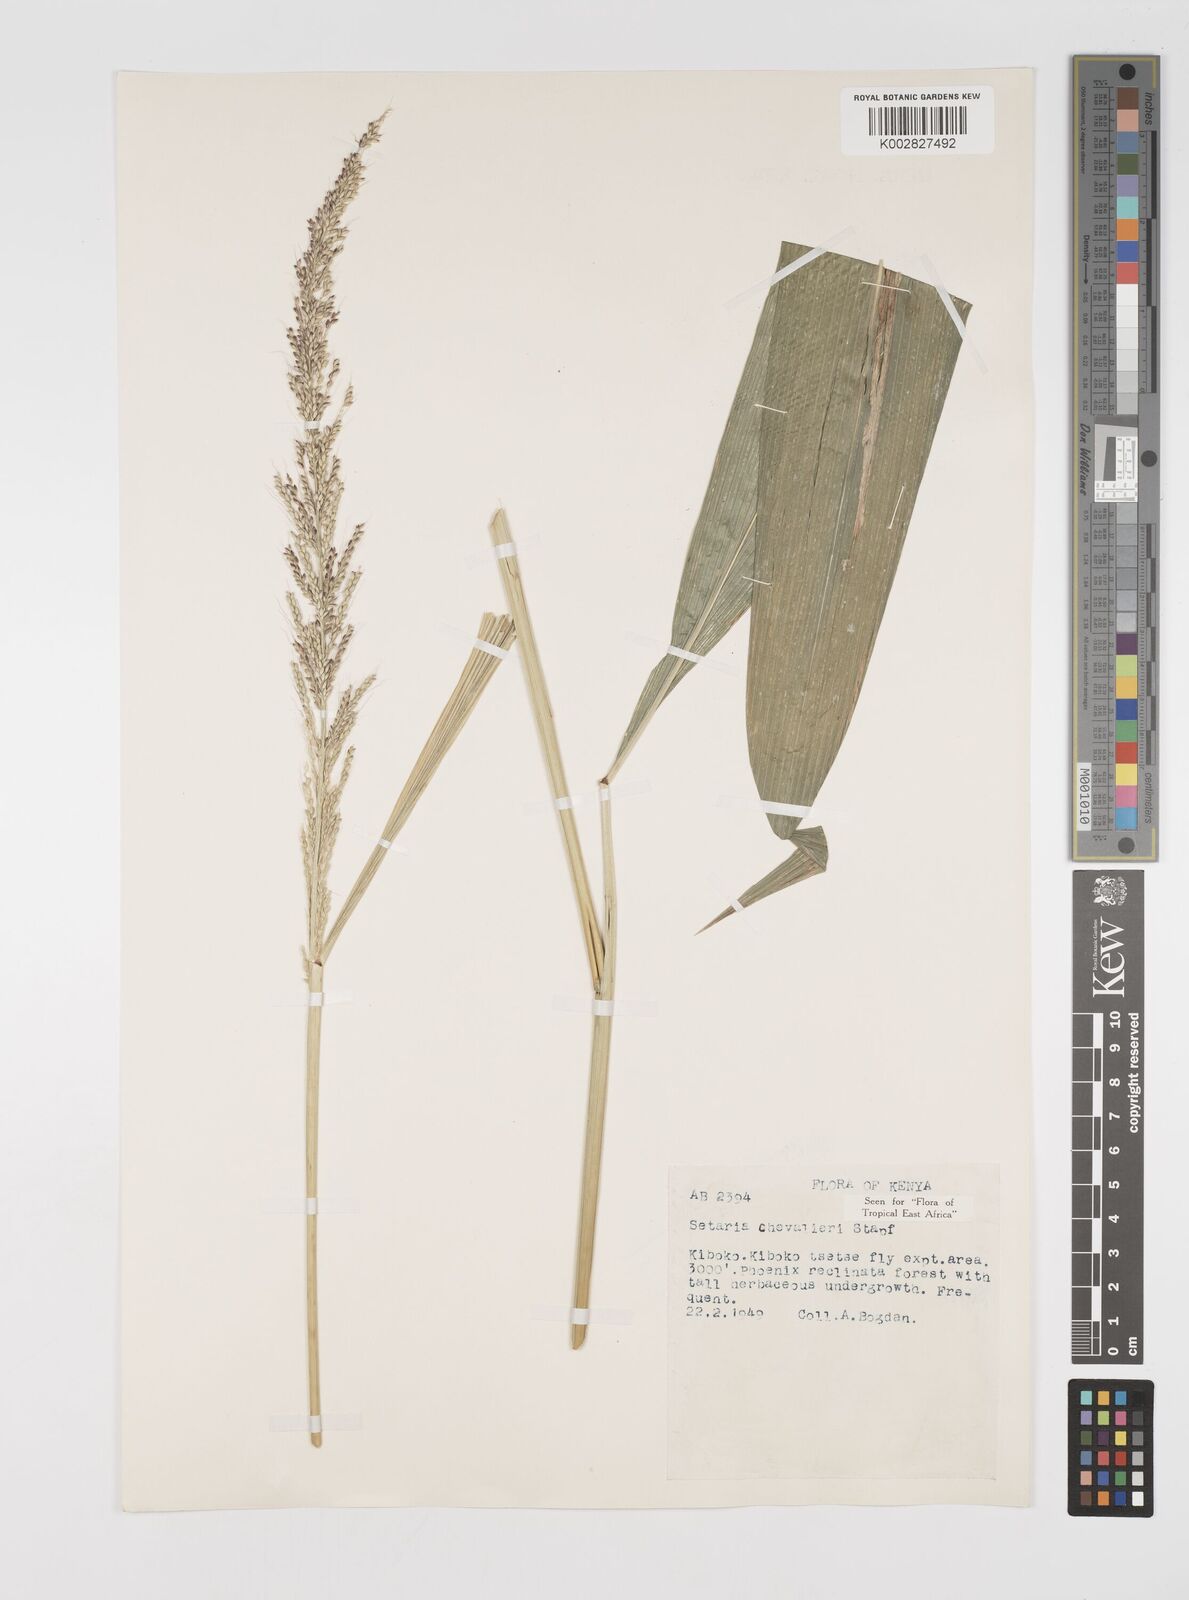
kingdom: Plantae
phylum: Tracheophyta
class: Liliopsida
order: Poales
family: Poaceae
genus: Setaria
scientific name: Setaria megaphylla
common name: Bigleaf bristlegrass
